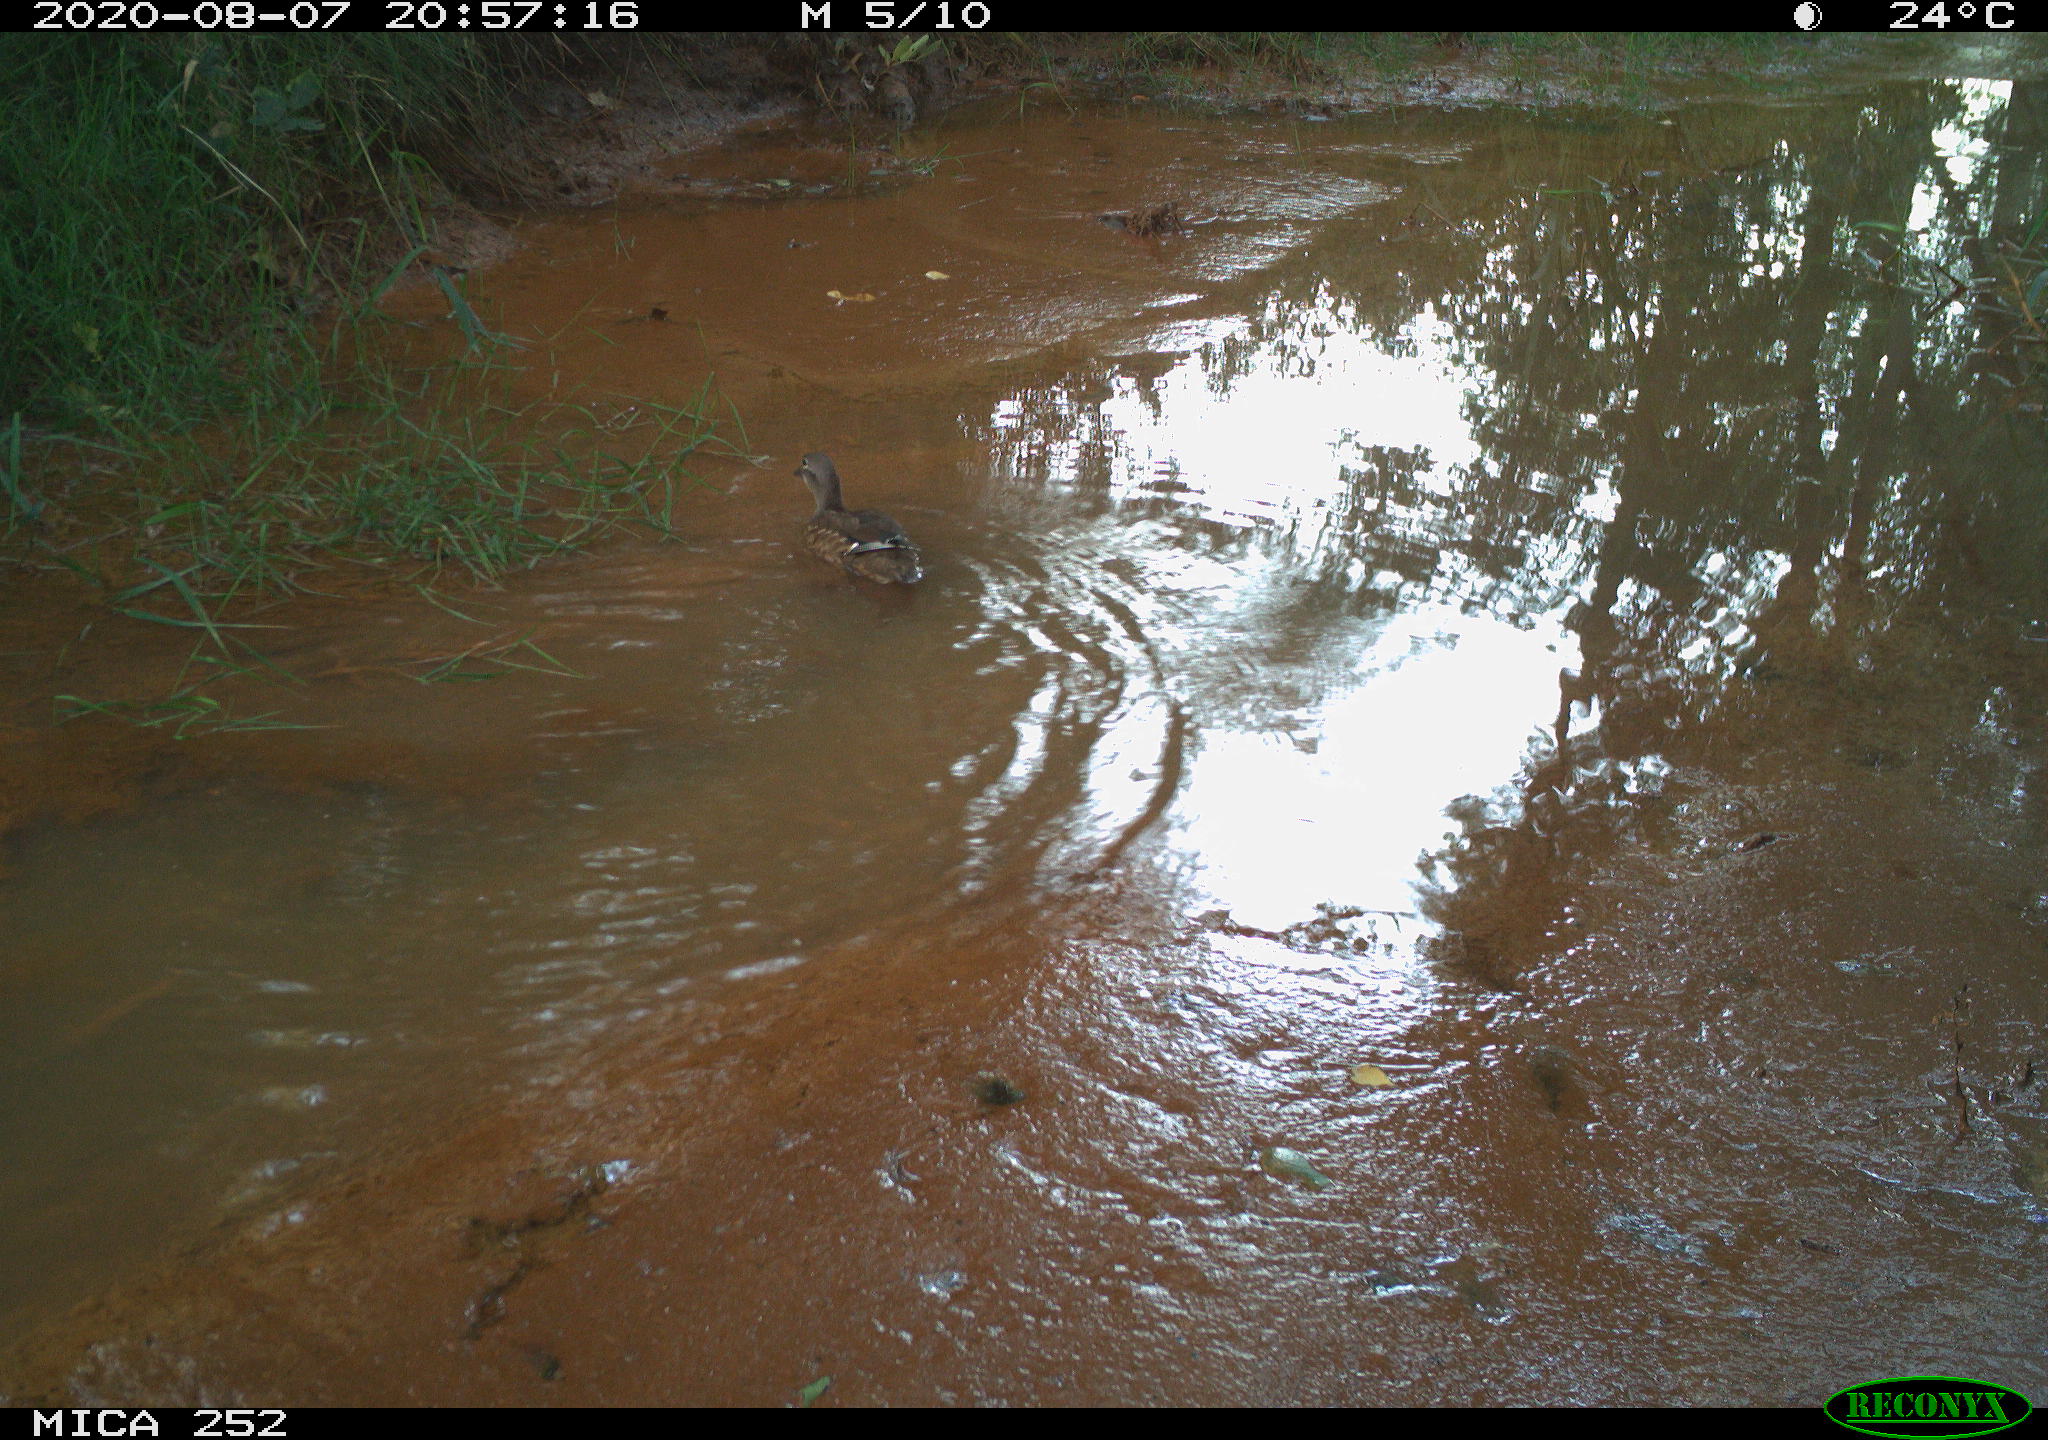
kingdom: Animalia
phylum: Chordata
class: Aves
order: Anseriformes
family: Anatidae
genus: Aix
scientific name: Aix galericulata
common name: Mandarin duck
